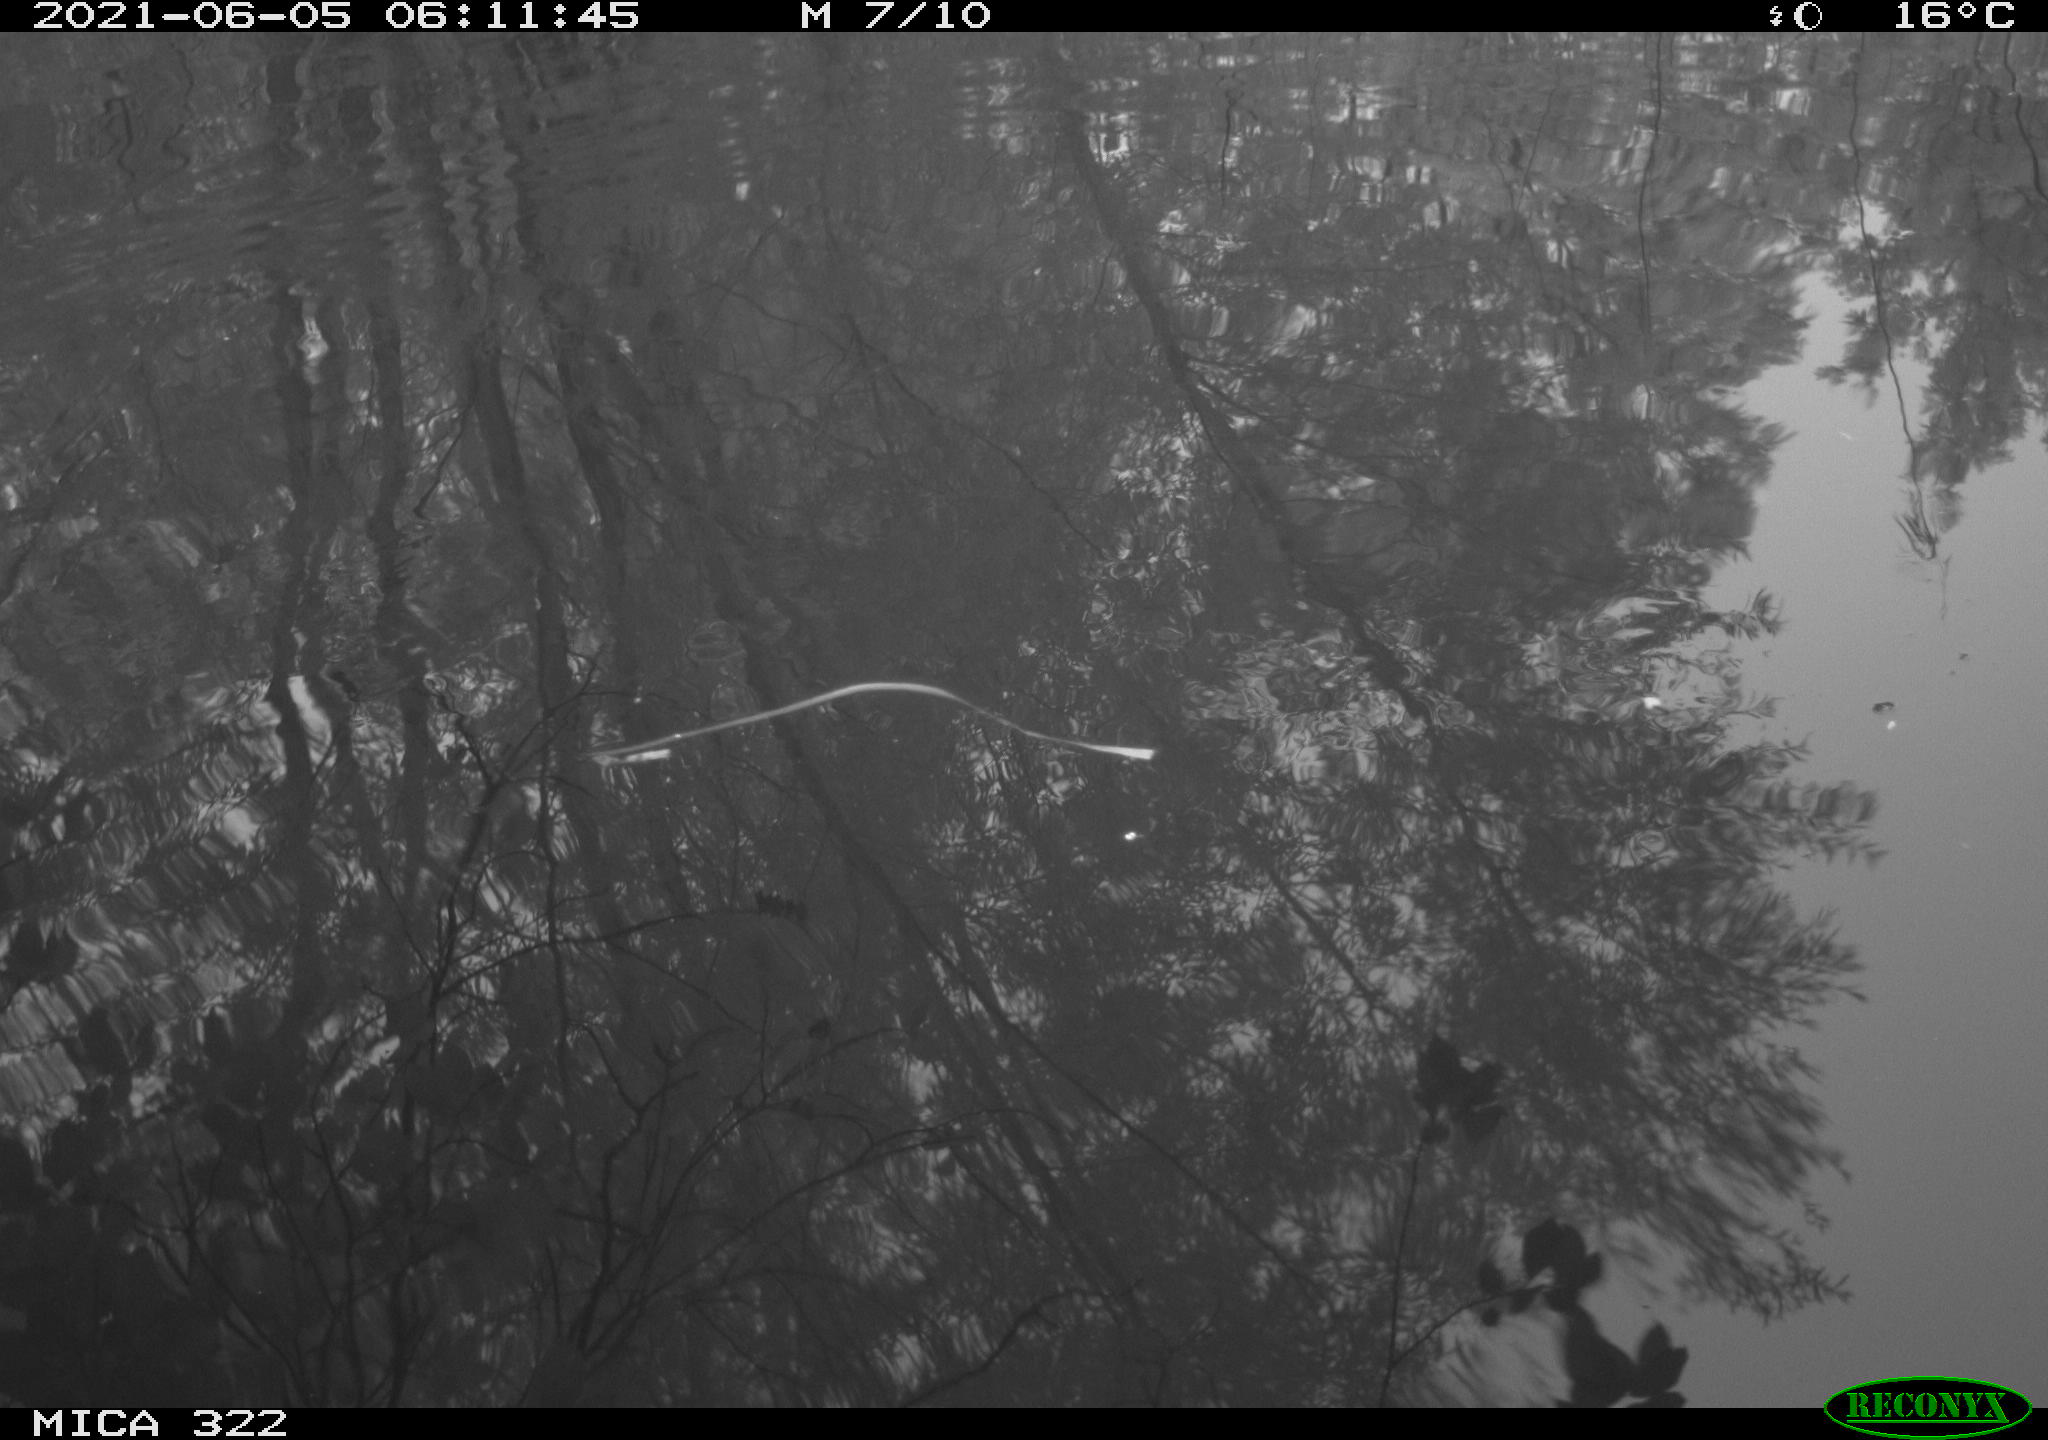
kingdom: Animalia
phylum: Chordata
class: Aves
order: Anseriformes
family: Anatidae
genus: Mareca
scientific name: Mareca strepera
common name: Gadwall
